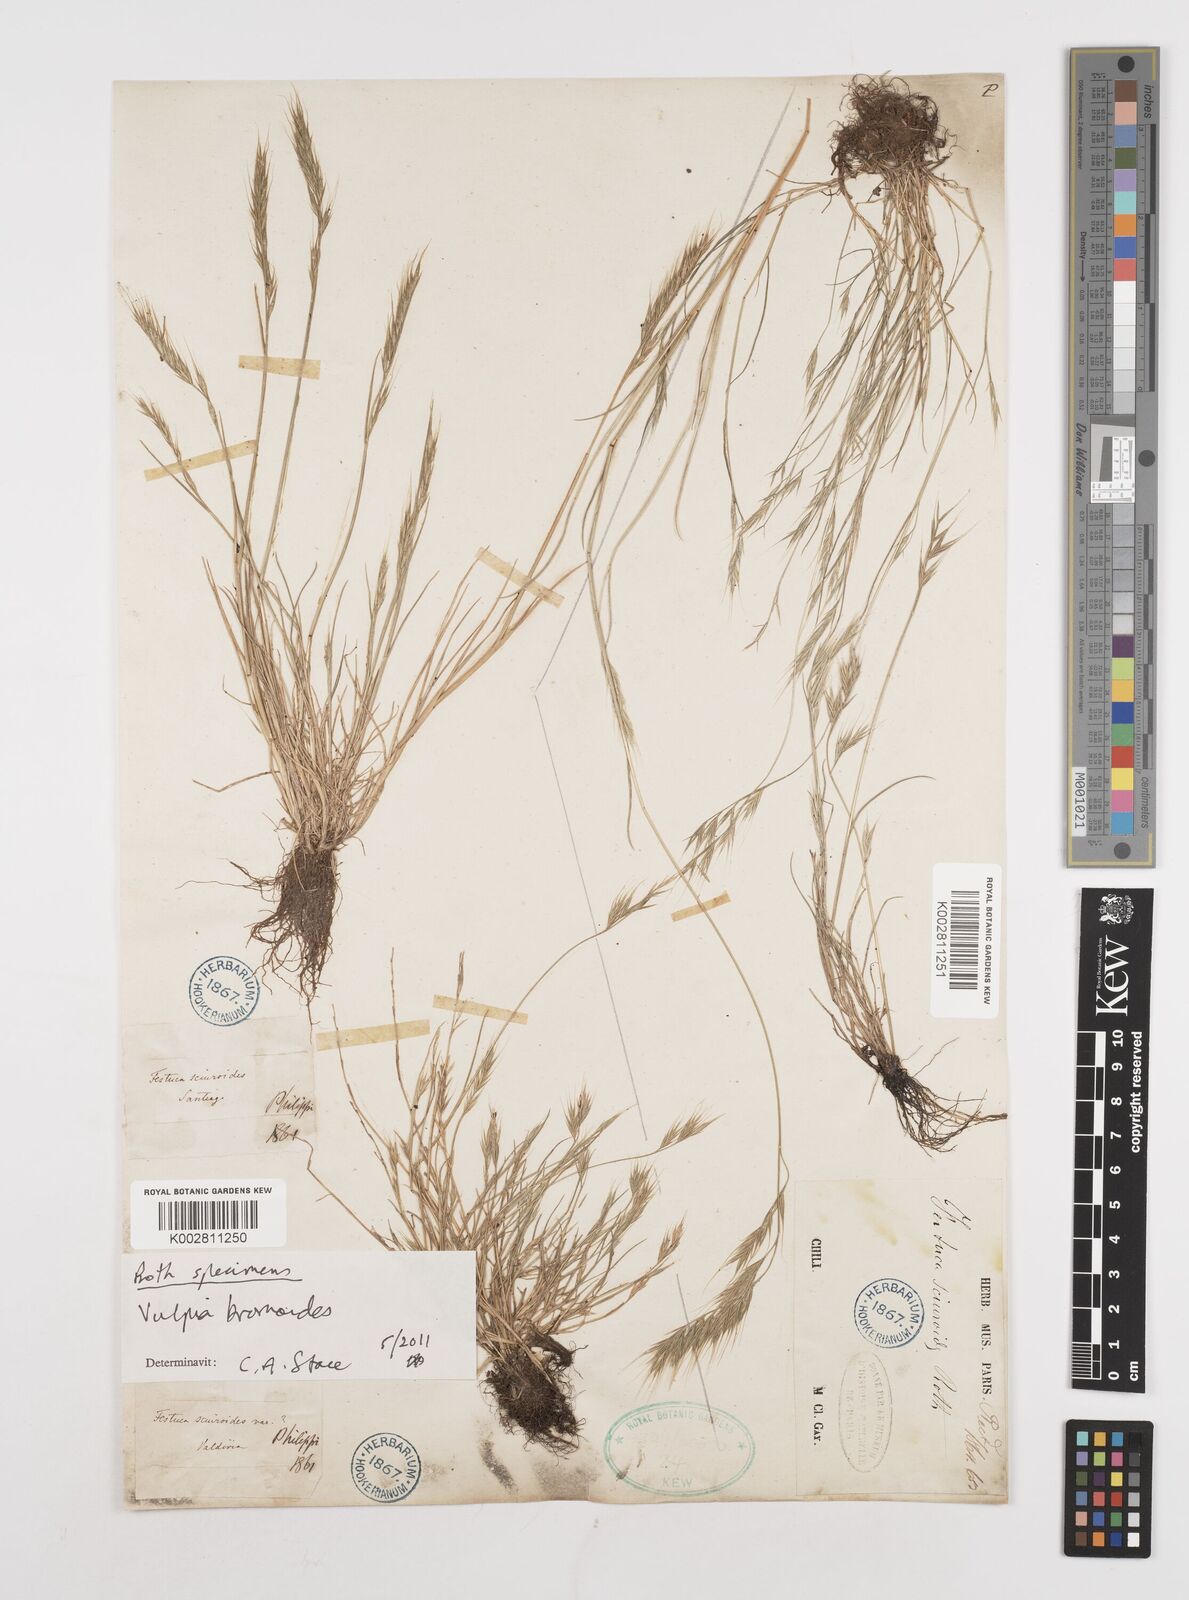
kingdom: Plantae
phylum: Tracheophyta
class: Liliopsida
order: Poales
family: Poaceae
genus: Festuca
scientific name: Festuca bromoides
